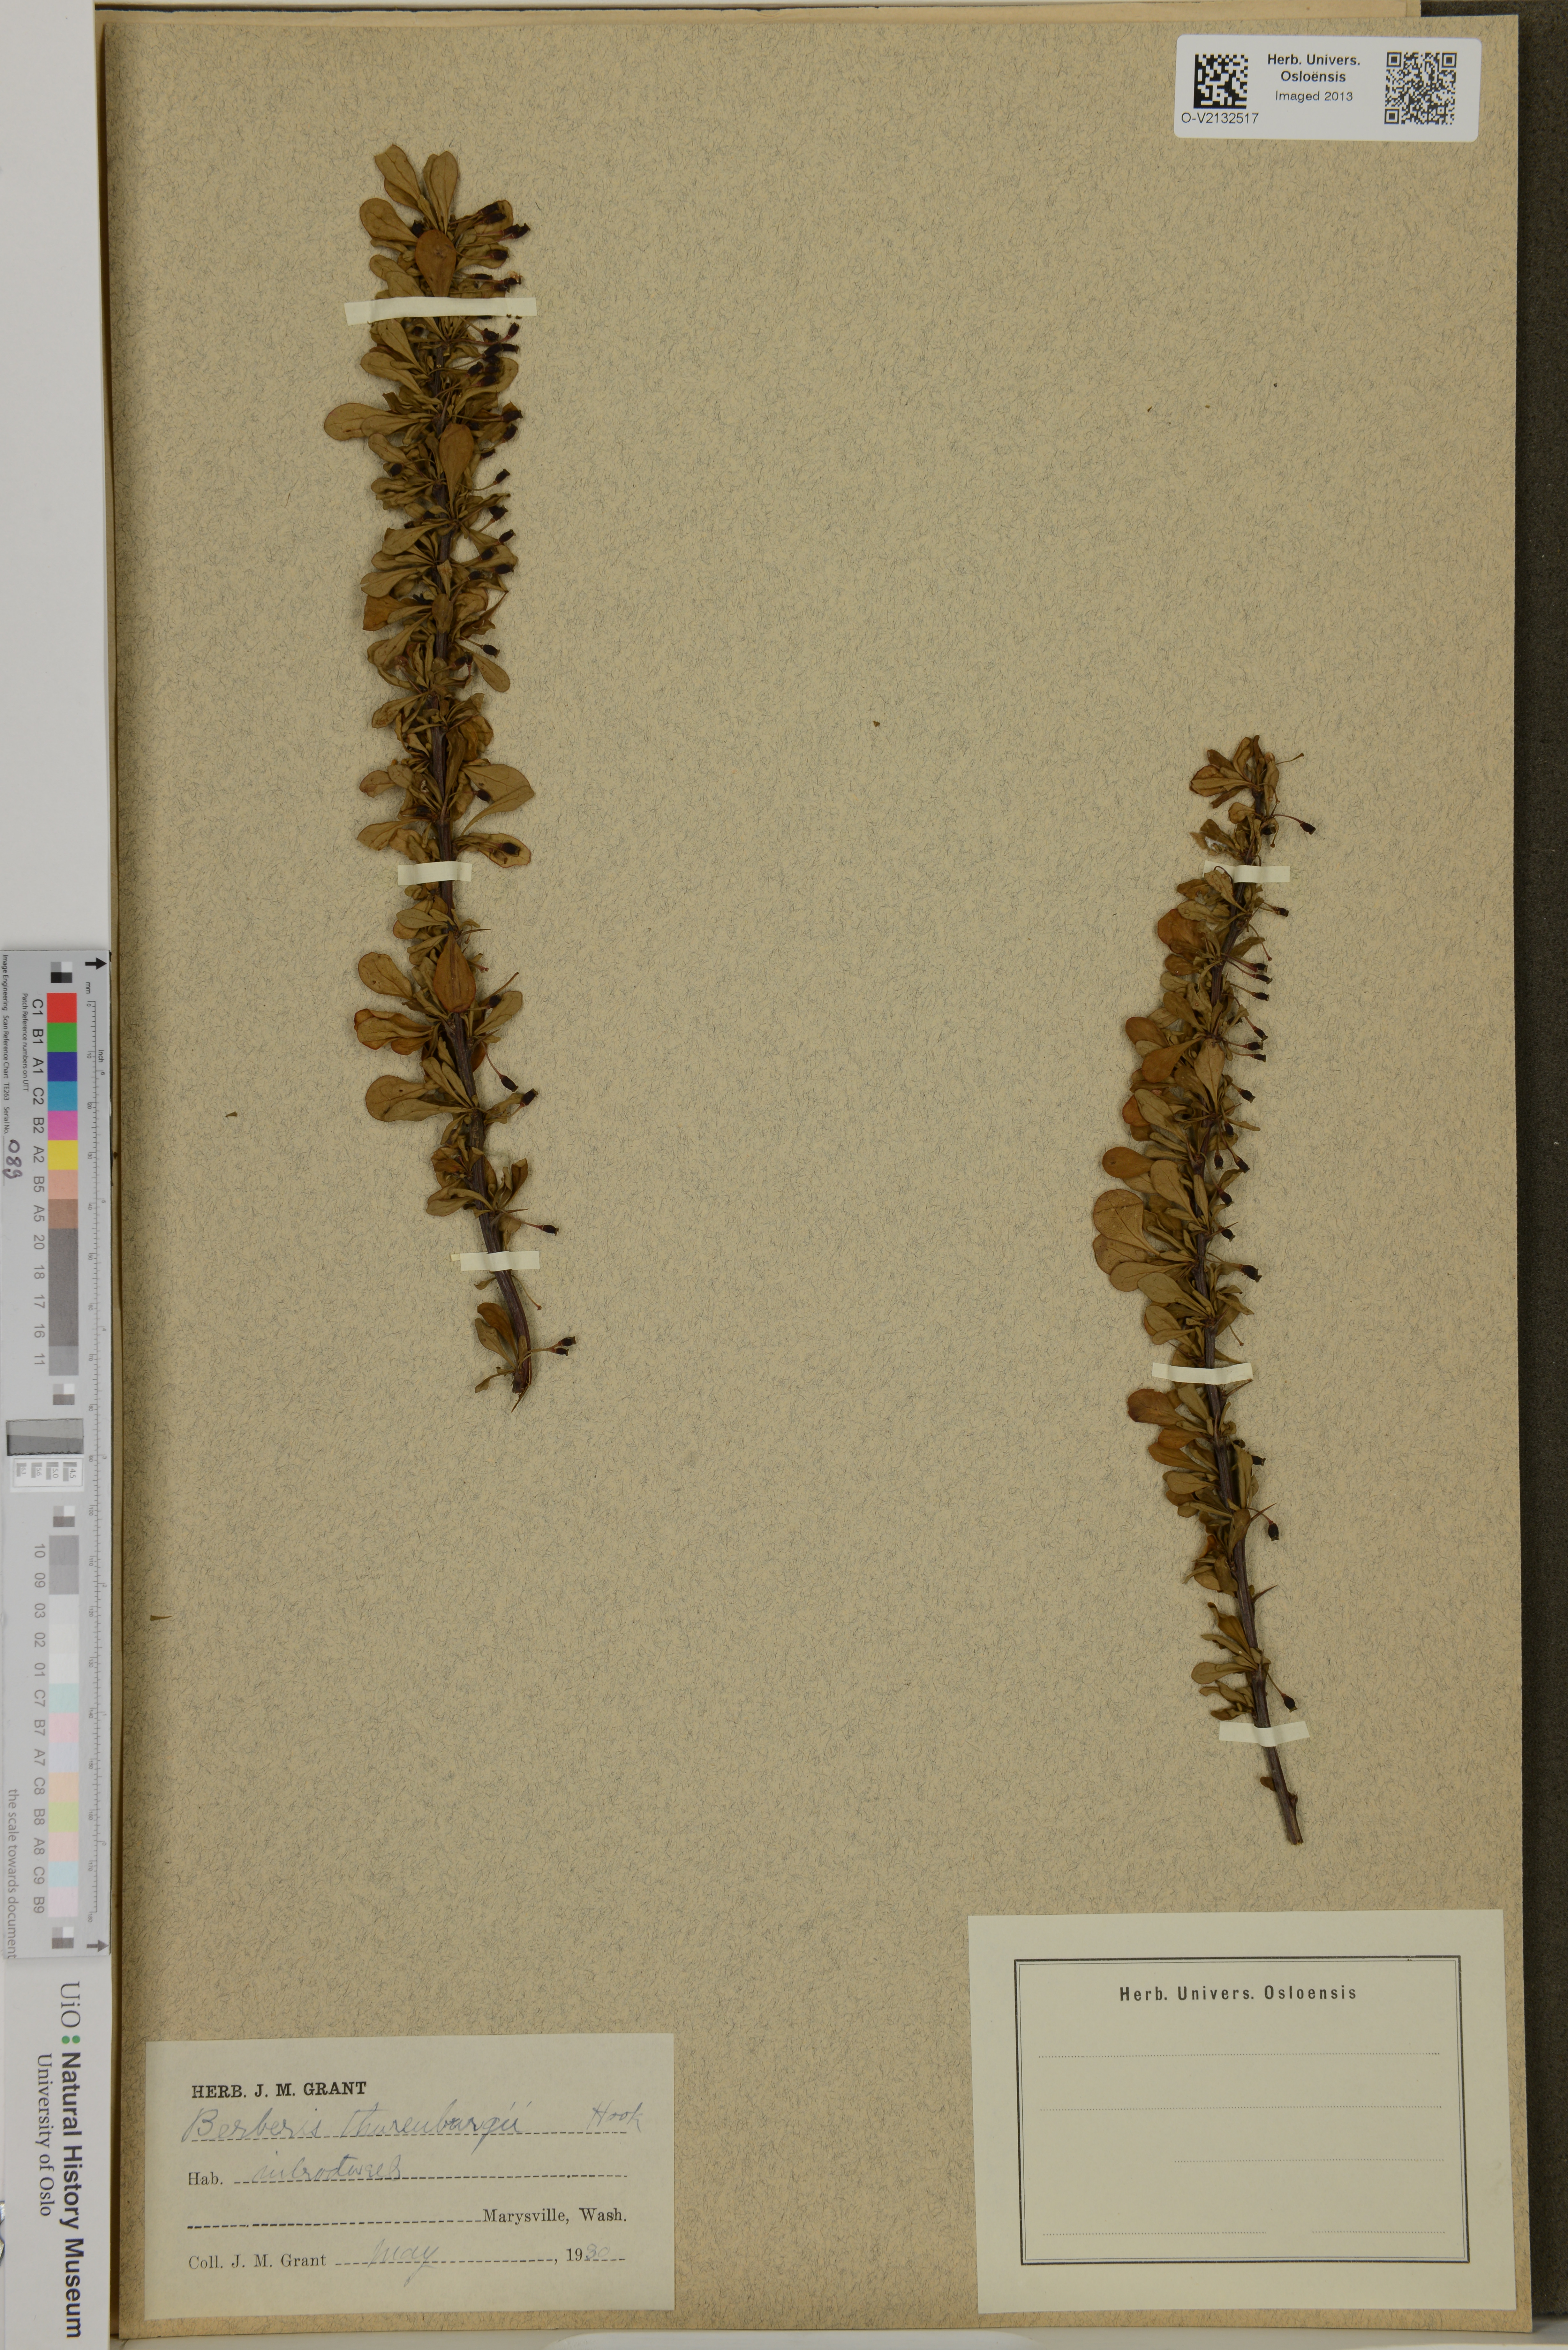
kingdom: Plantae
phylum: Tracheophyta
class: Magnoliopsida
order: Ranunculales
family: Berberidaceae
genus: Berberis
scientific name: Berberis thunbergii
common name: Japanese barberry
